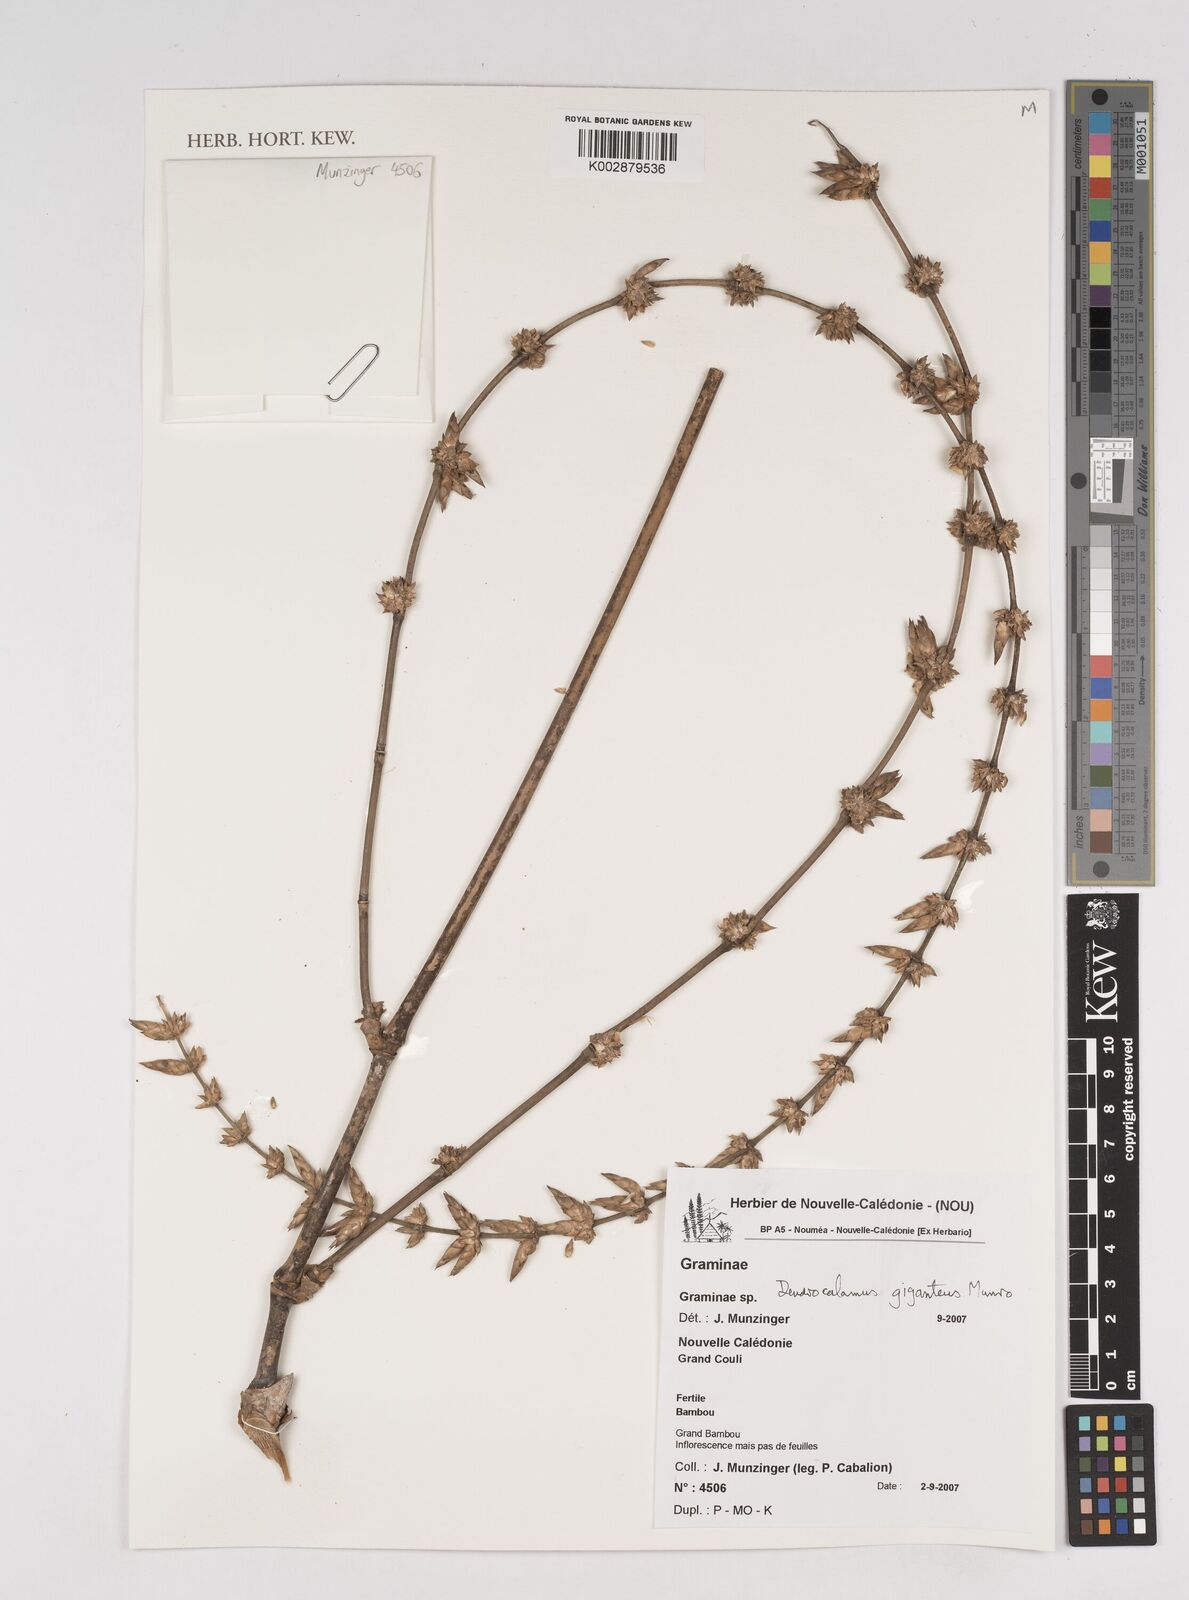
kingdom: Plantae
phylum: Tracheophyta
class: Liliopsida
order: Poales
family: Poaceae
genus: Dendrocalamus
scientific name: Dendrocalamus giganteus
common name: Giant bamboo
